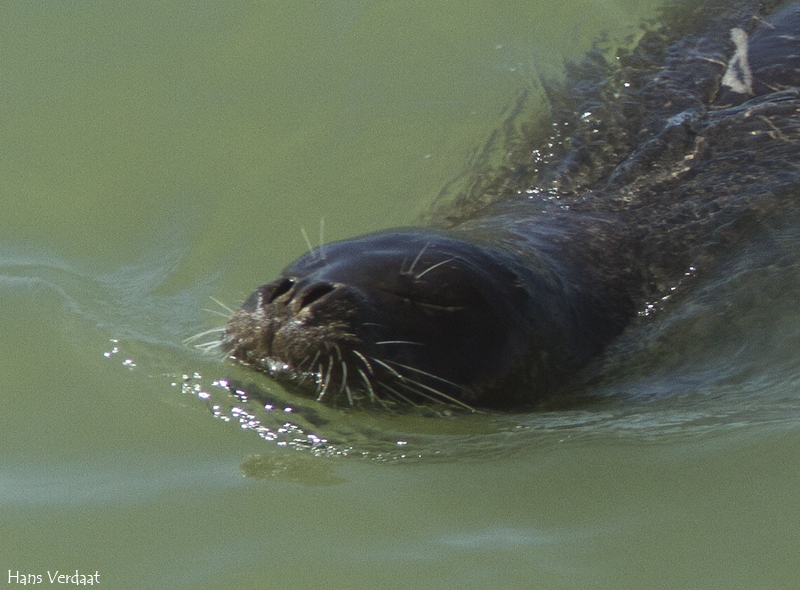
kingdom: Animalia
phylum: Chordata
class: Mammalia
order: Carnivora
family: Phocidae
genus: Monachus
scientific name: Monachus monachus
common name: Mediterranean Monk Seal
